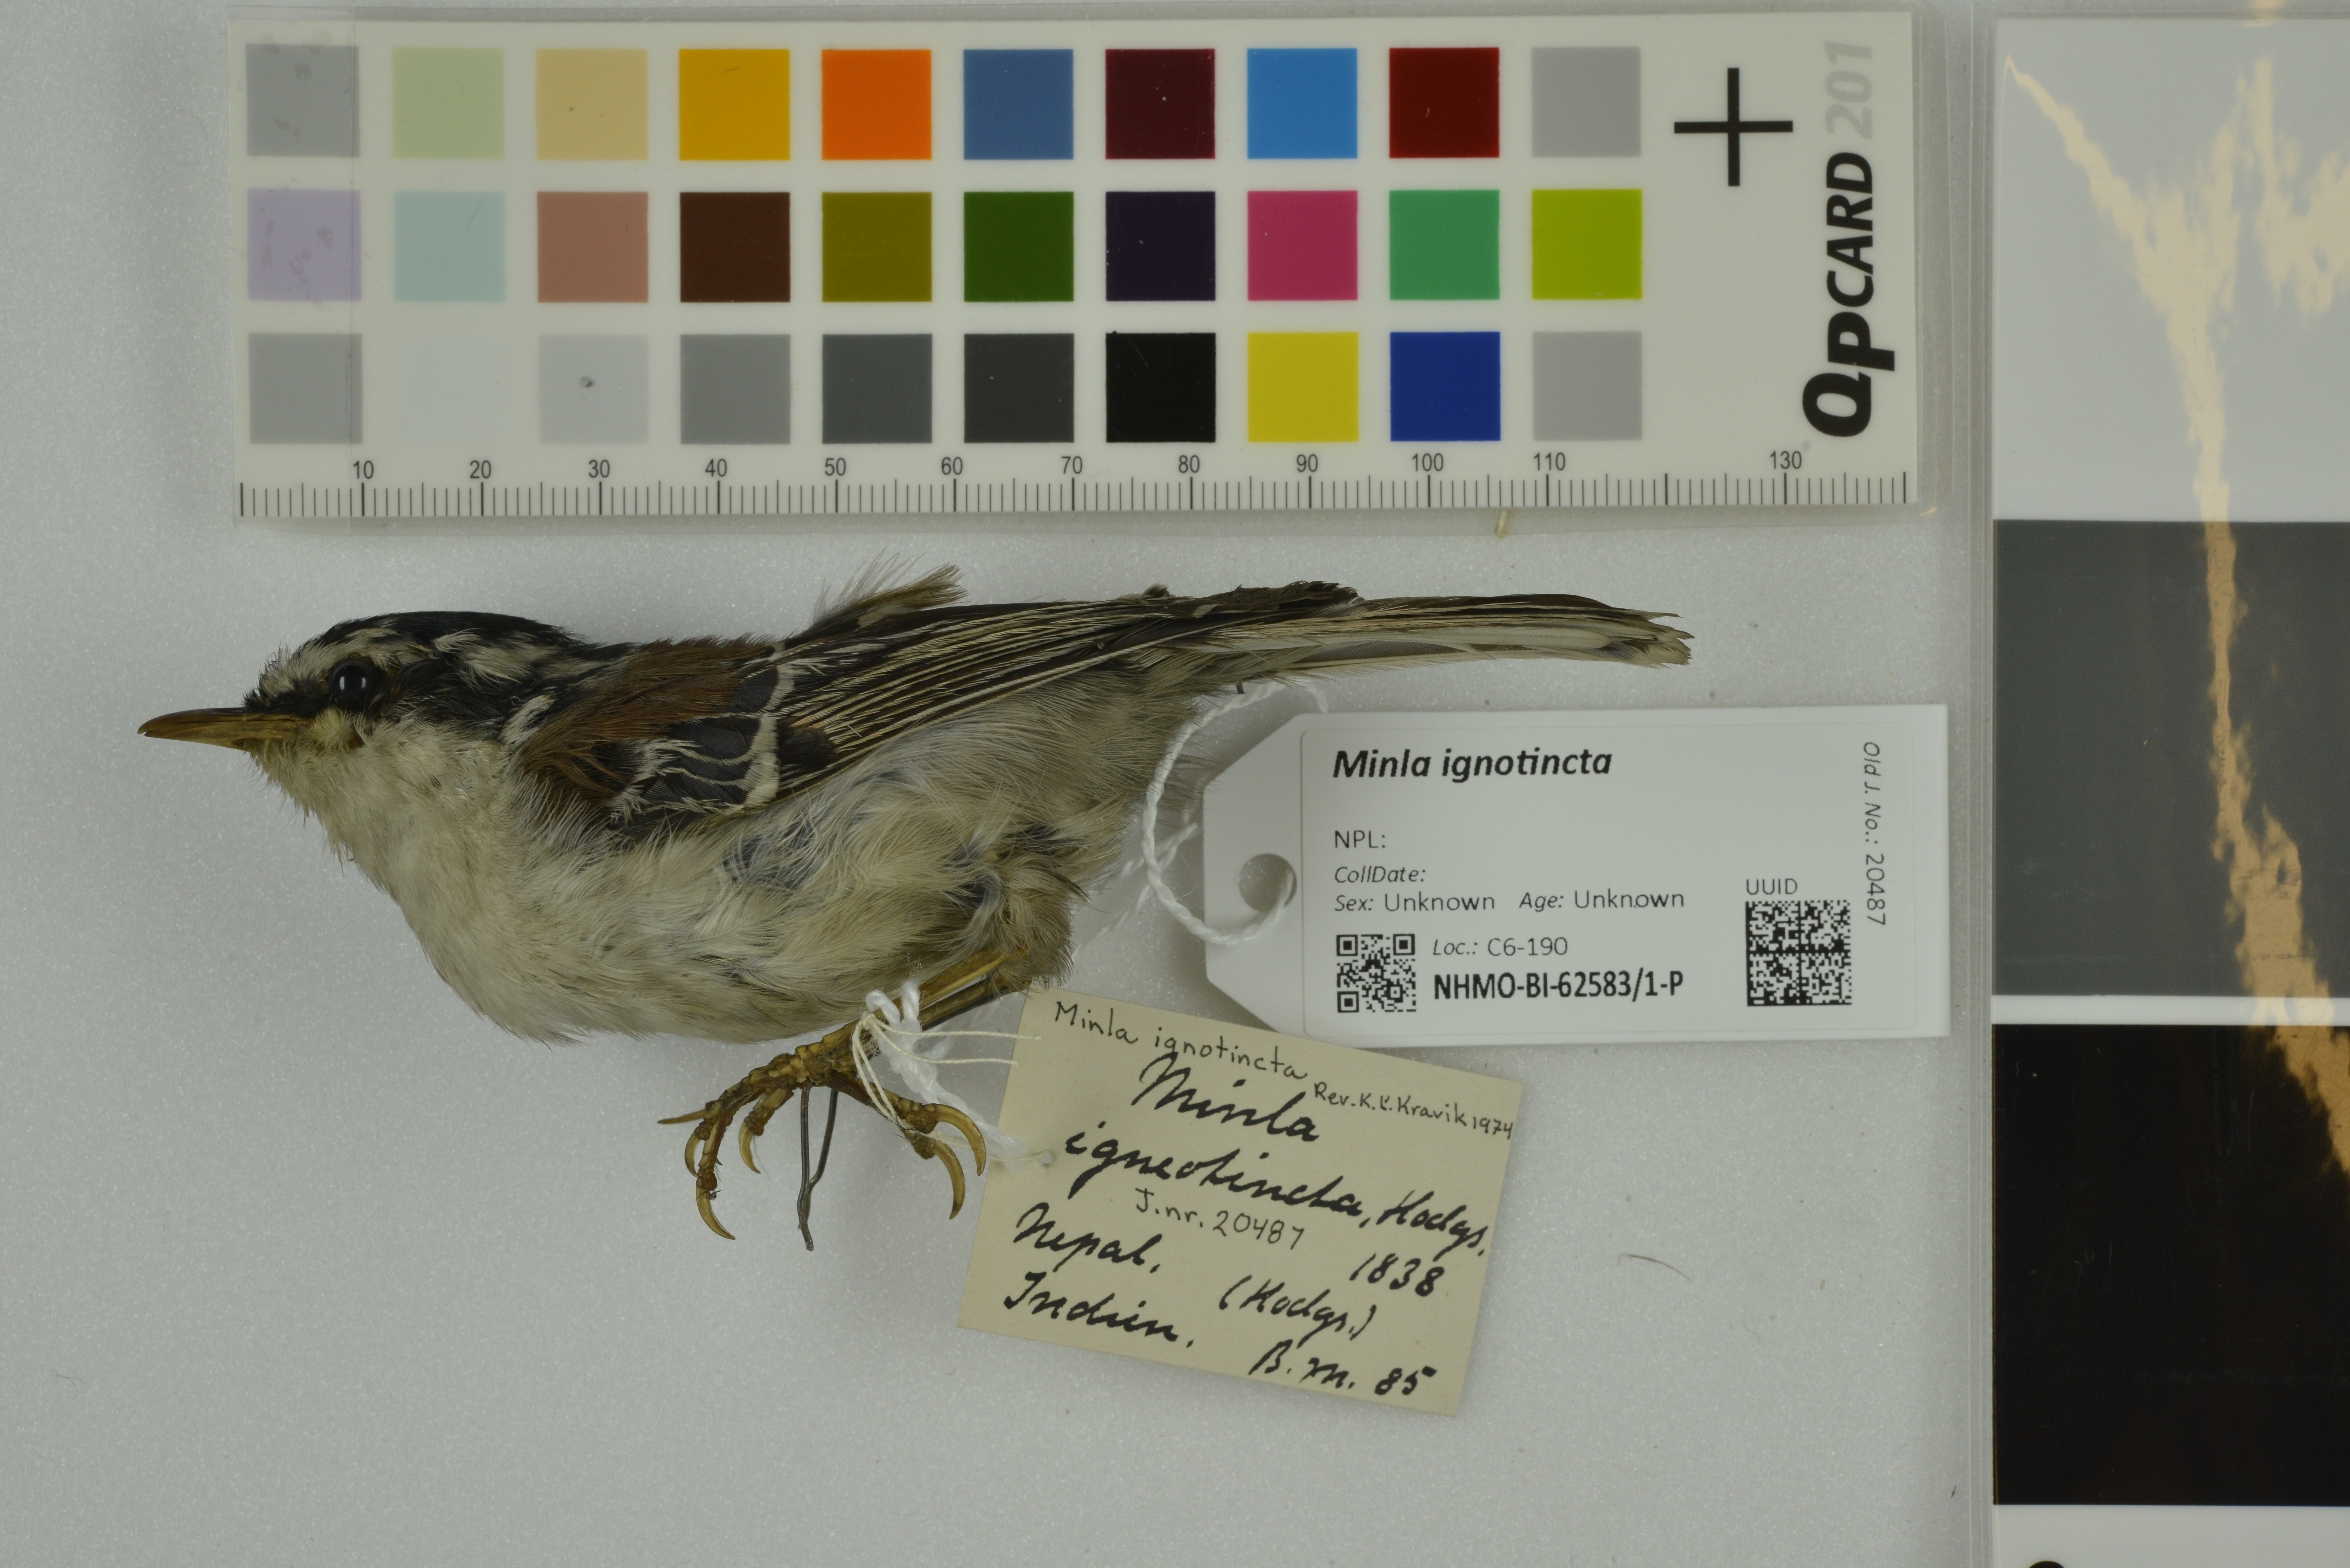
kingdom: Animalia
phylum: Chordata
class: Aves
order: Passeriformes
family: Leiothrichidae
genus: Minla
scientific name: Minla ignotincta
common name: Red-tailed minla
